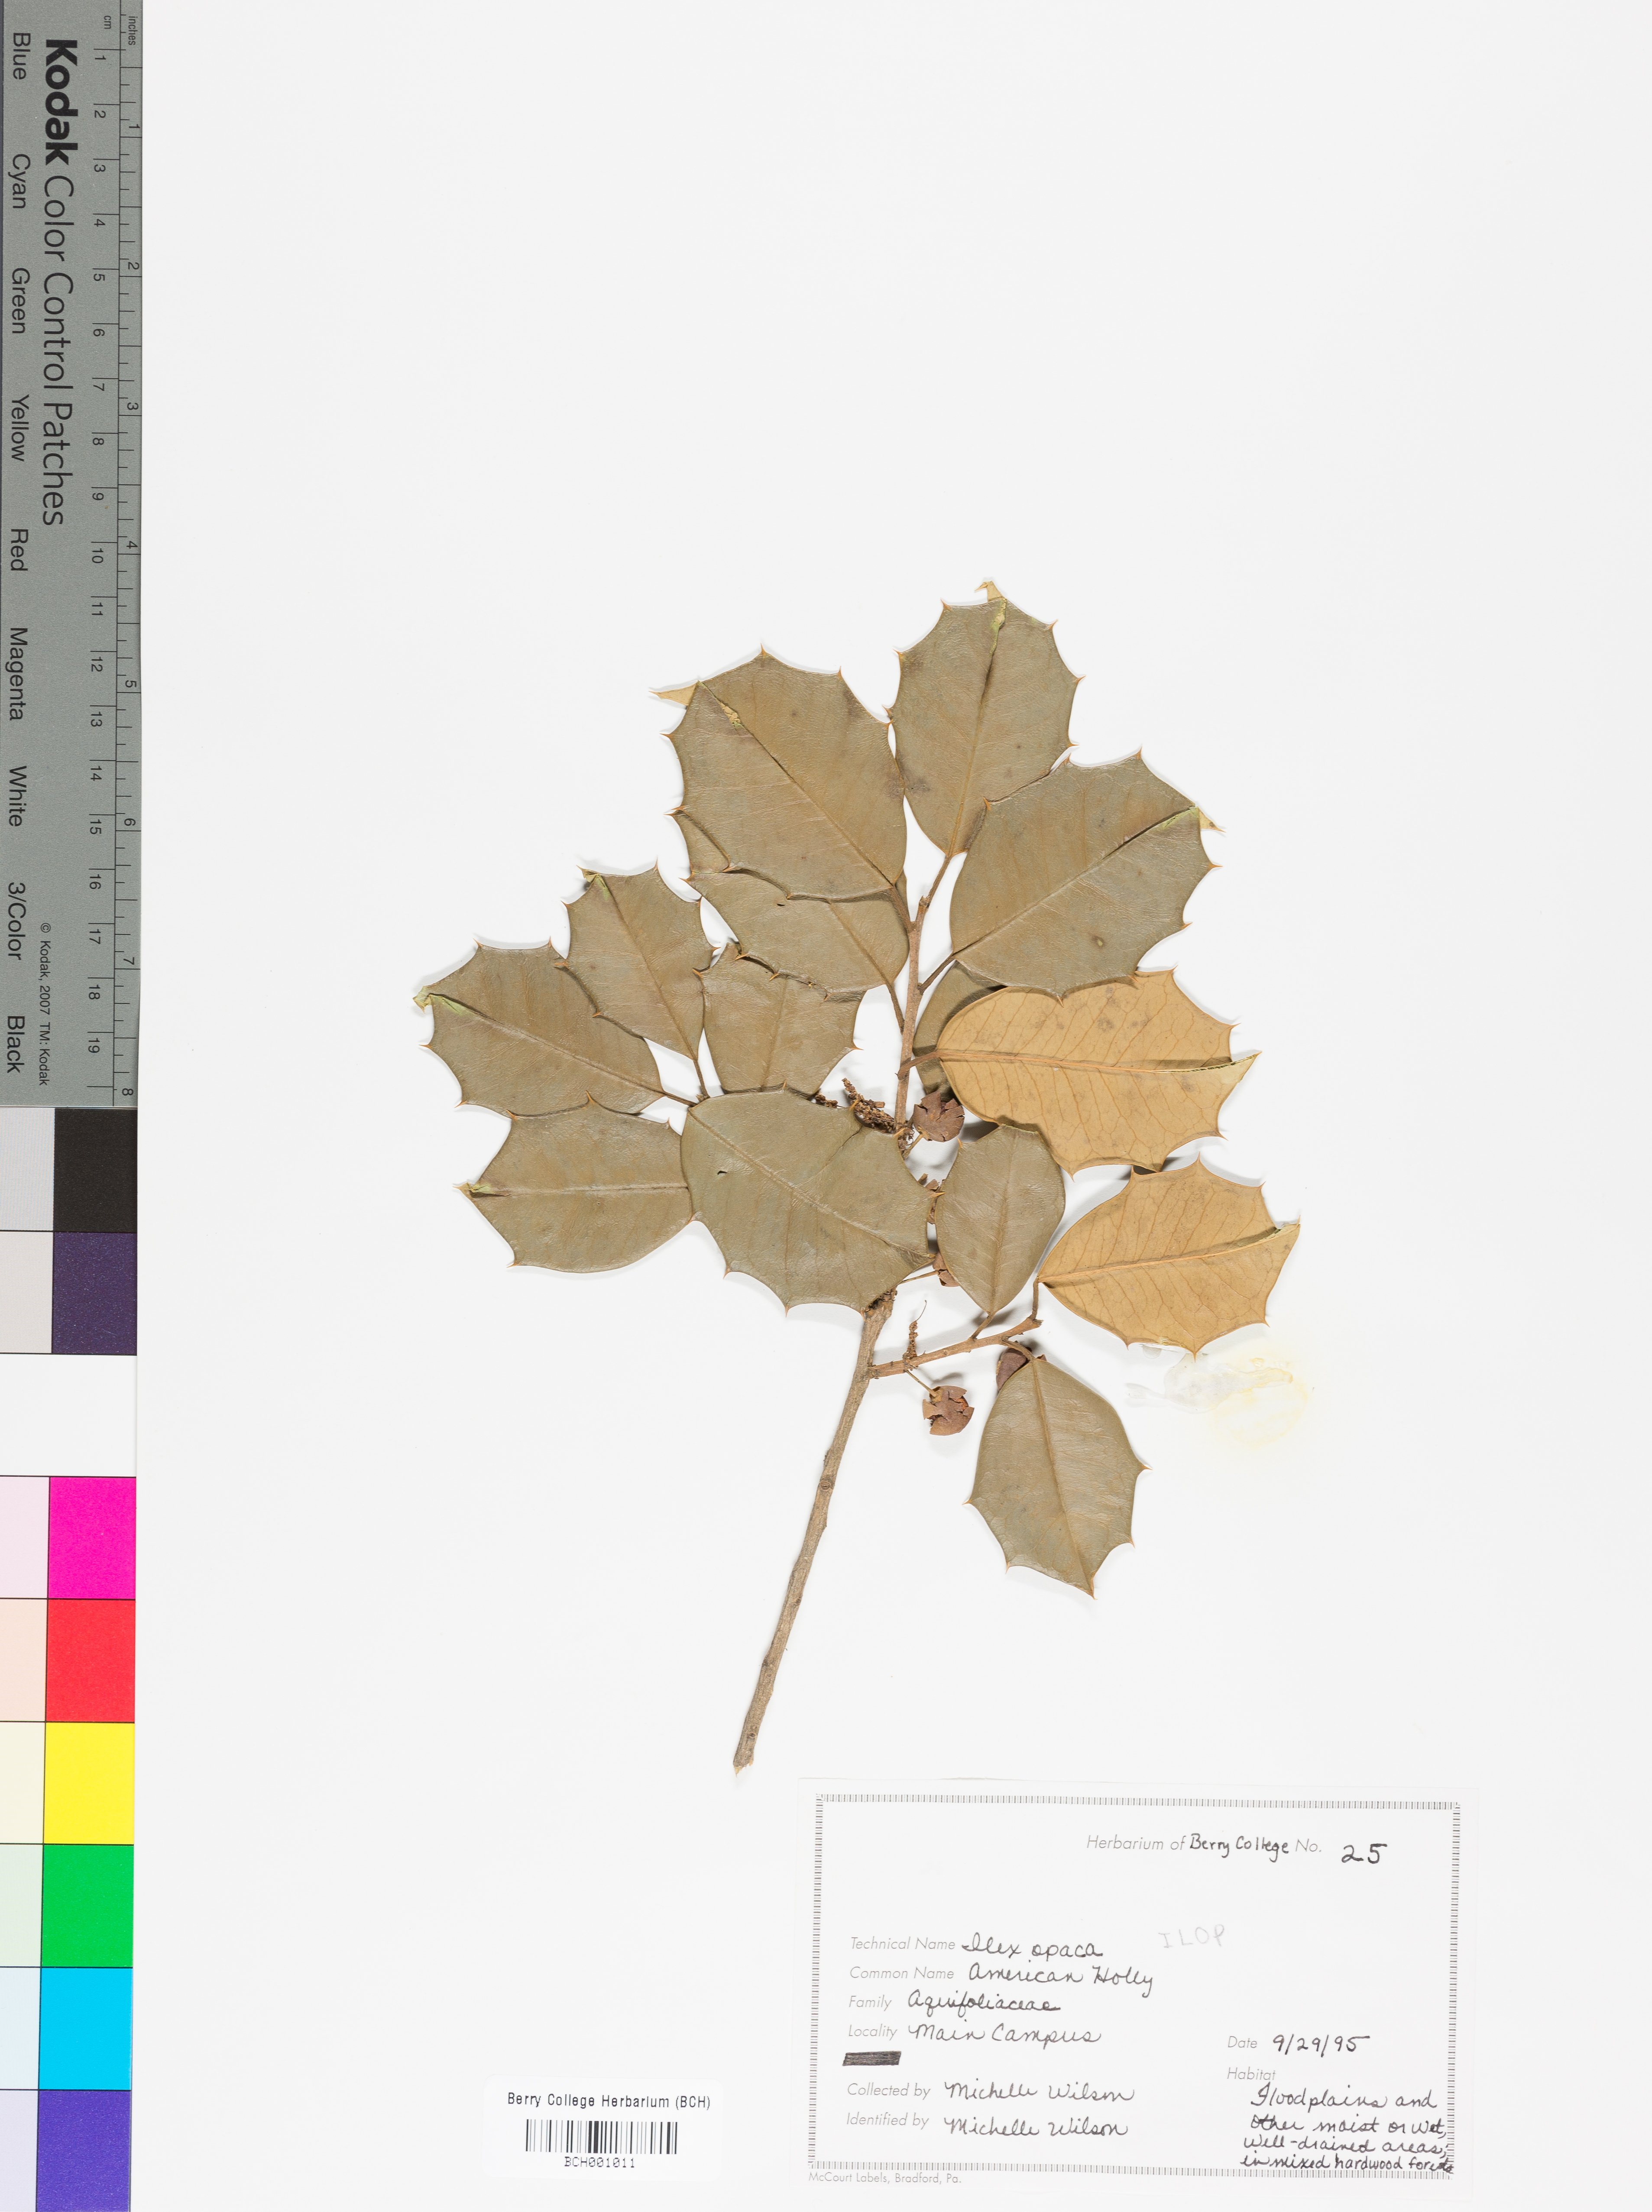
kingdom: Plantae
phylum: Tracheophyta
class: Magnoliopsida
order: Aquifoliales
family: Aquifoliaceae
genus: Ilex
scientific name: Ilex opaca
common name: American holly
